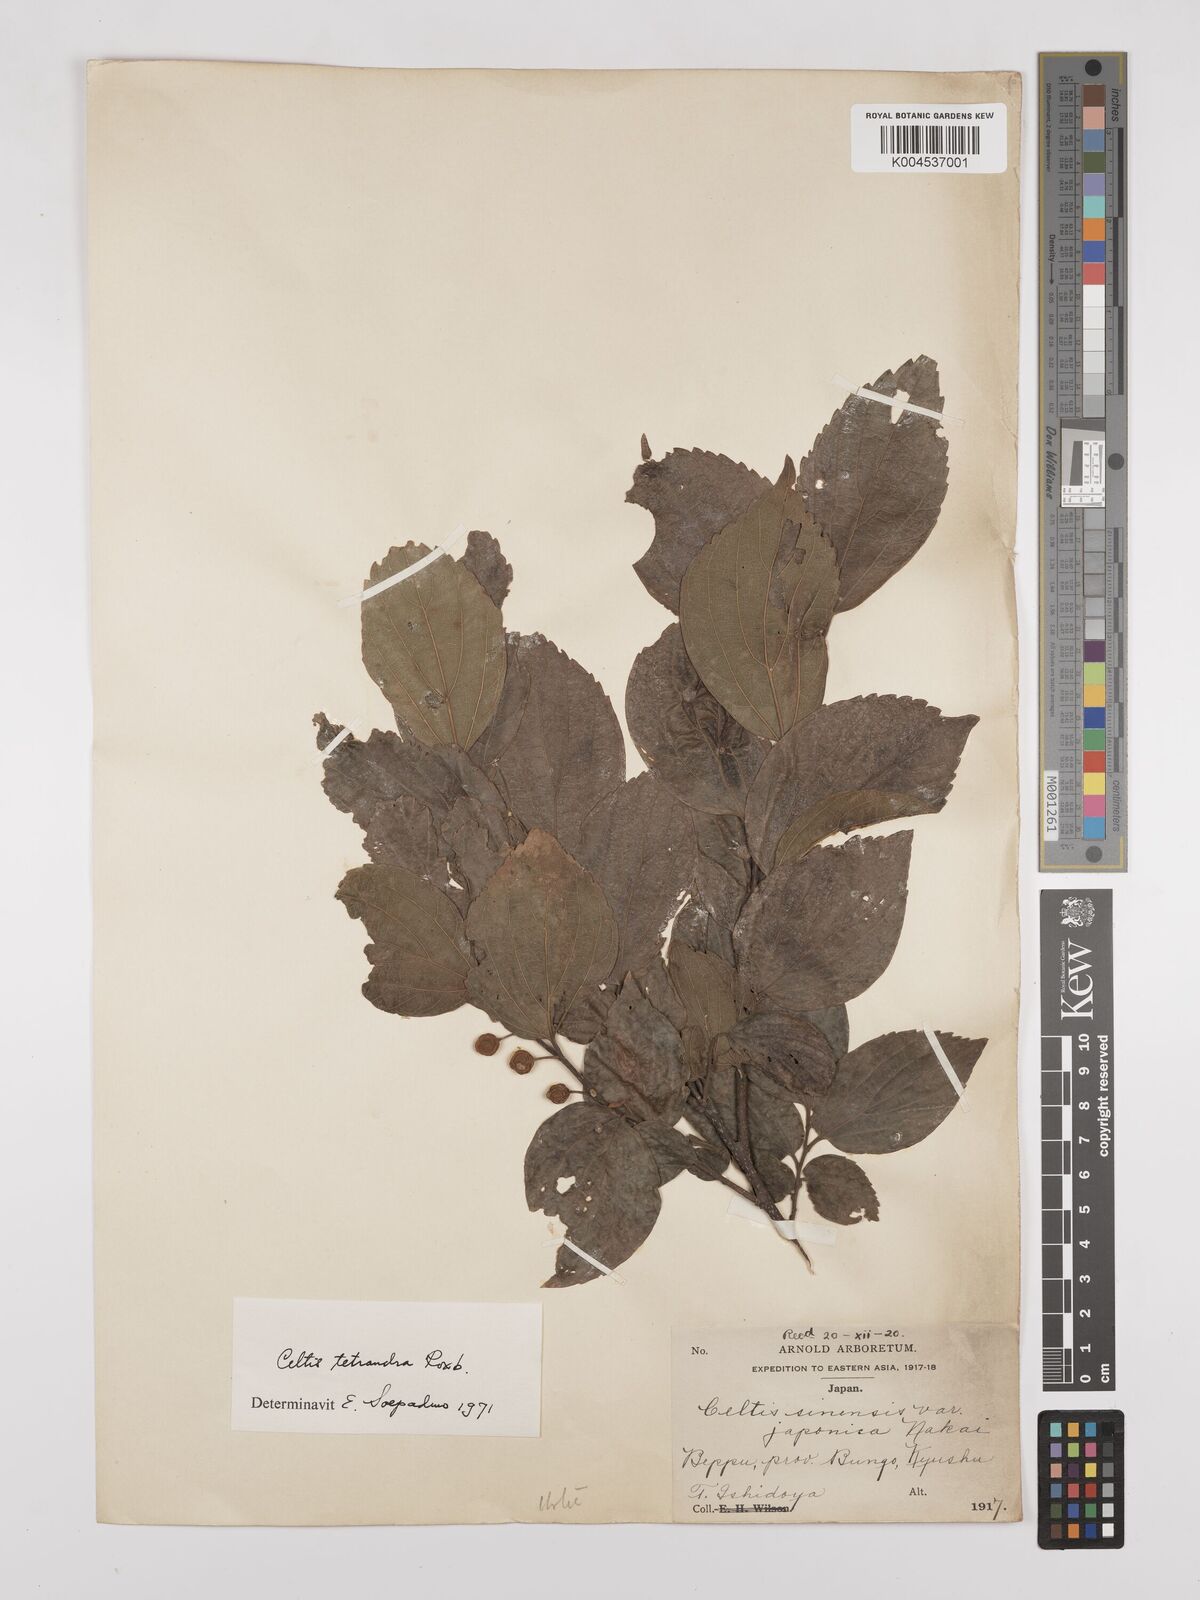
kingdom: Plantae
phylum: Tracheophyta
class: Magnoliopsida
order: Rosales
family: Cannabaceae
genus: Celtis
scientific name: Celtis tetrandra
